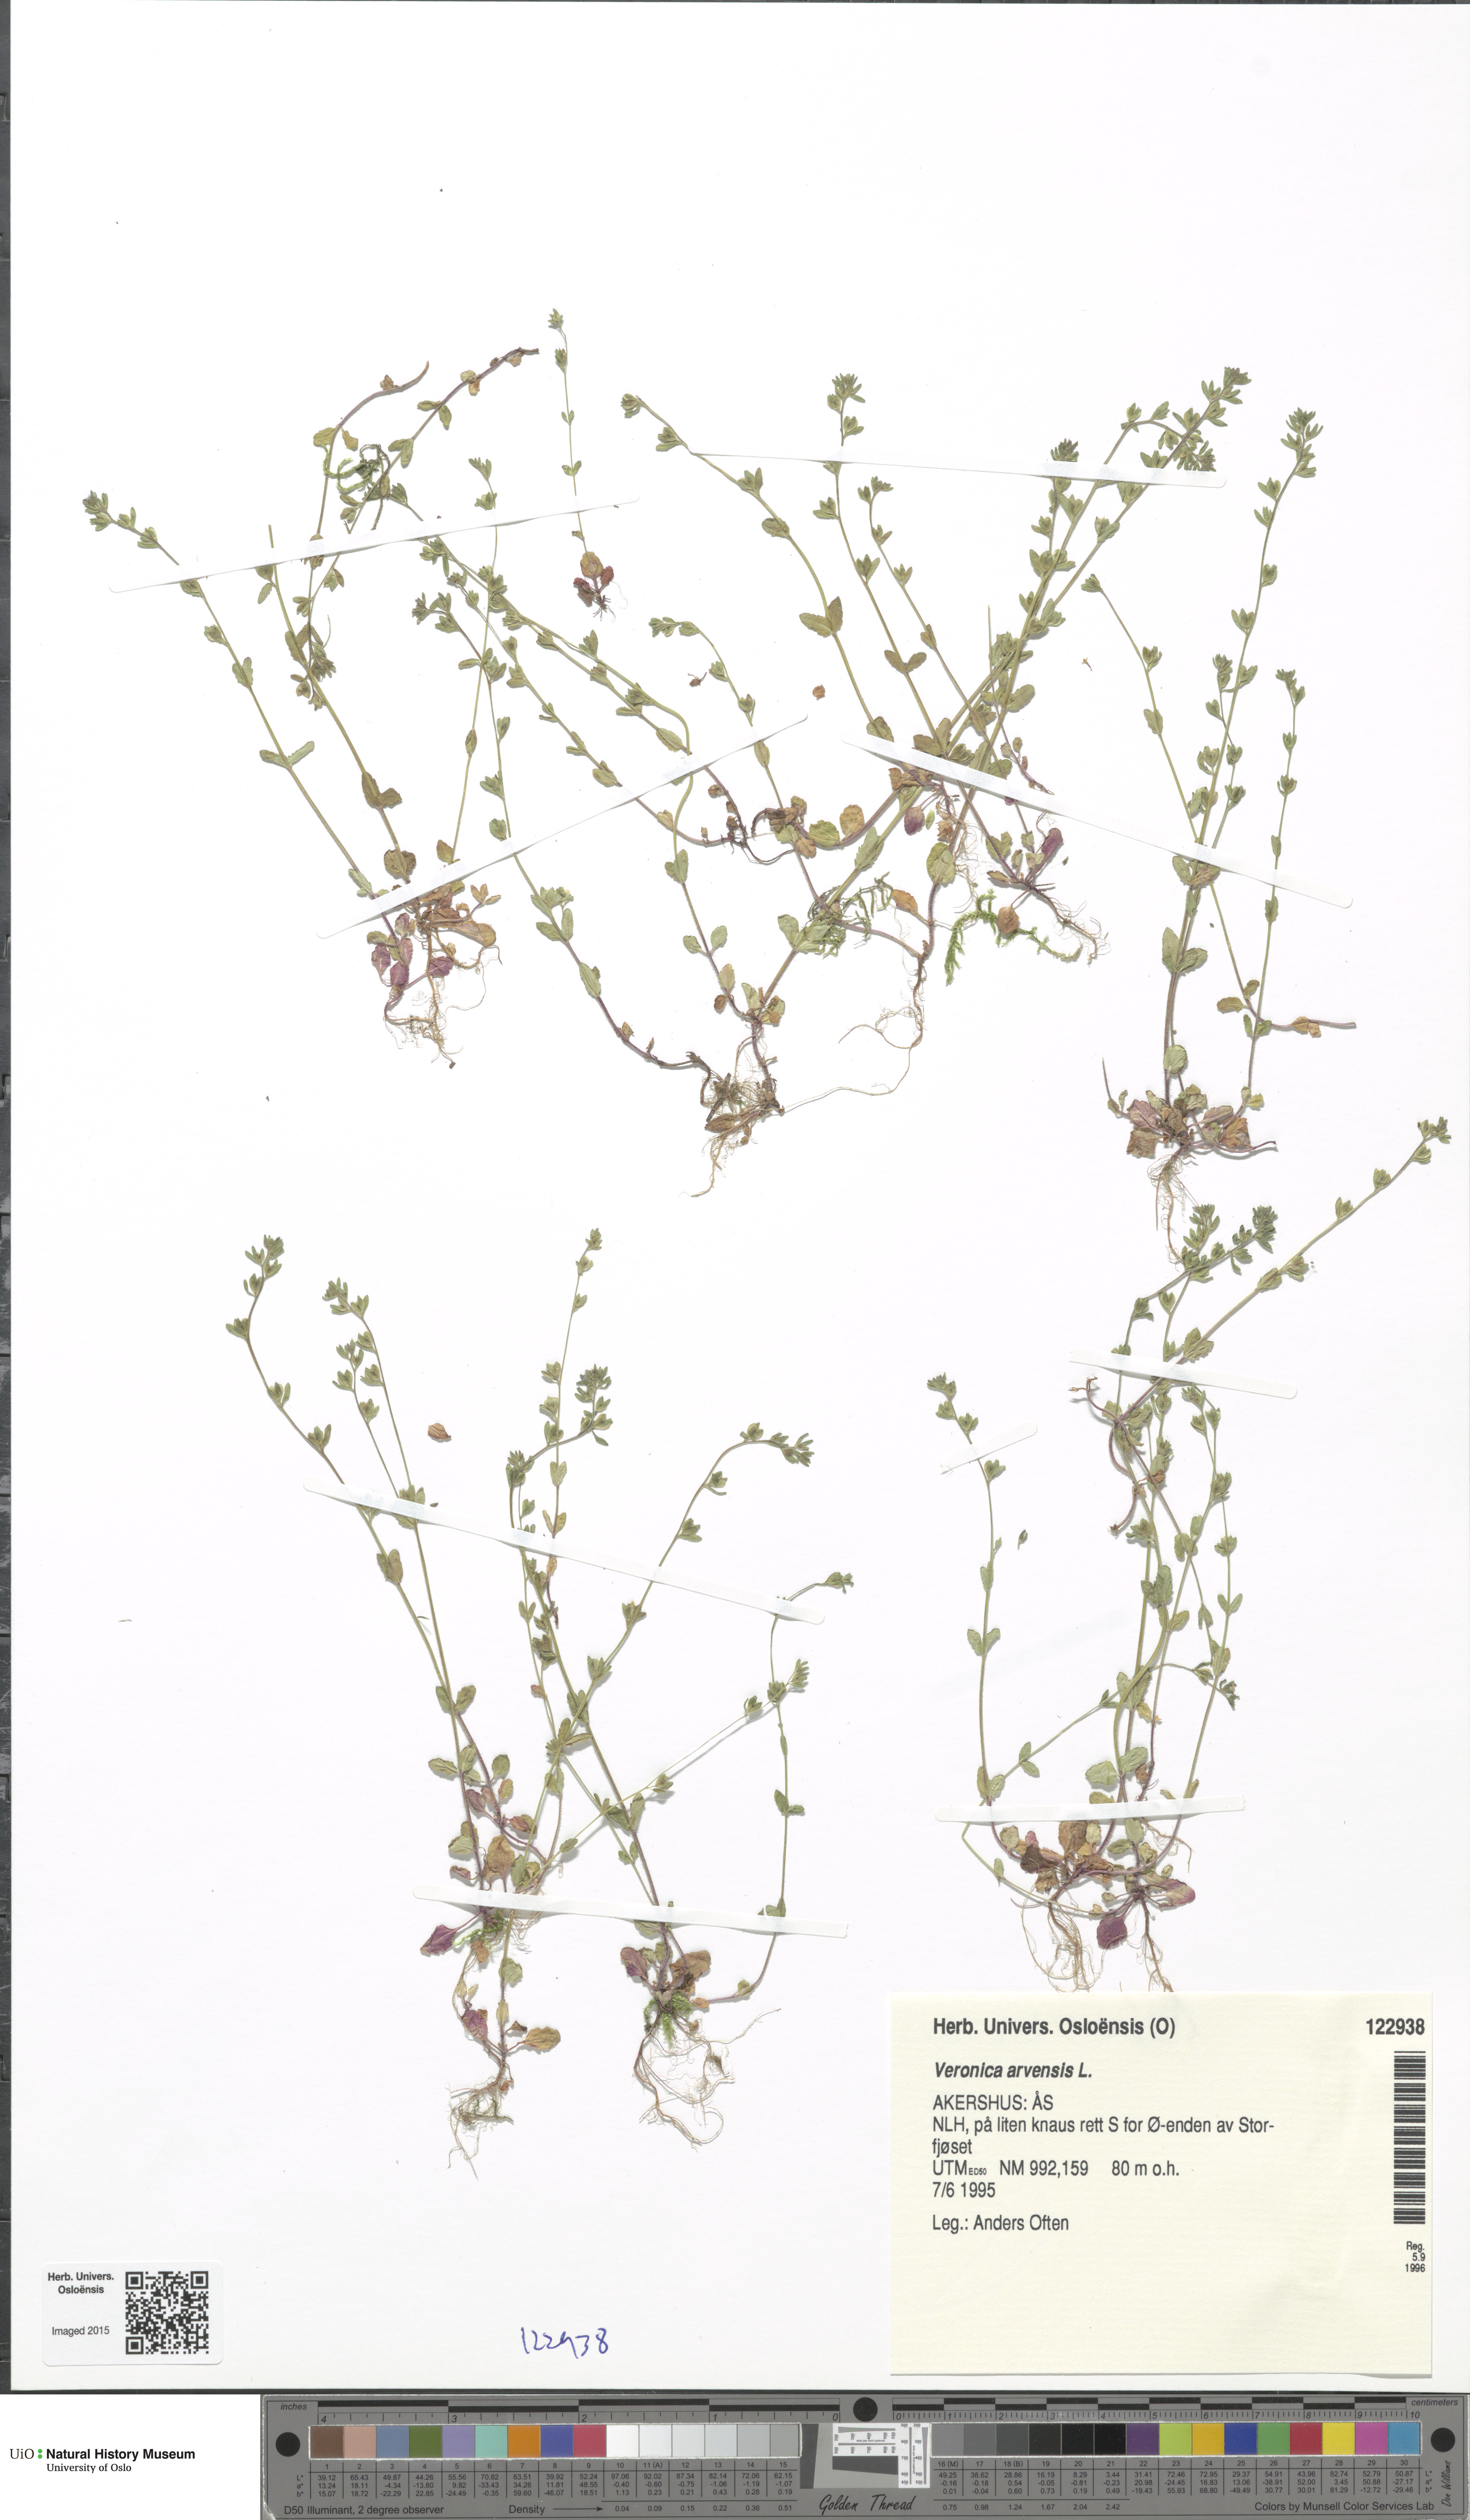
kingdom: Plantae
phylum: Tracheophyta
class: Magnoliopsida
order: Lamiales
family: Plantaginaceae
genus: Veronica
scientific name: Veronica arvensis
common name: Corn speedwell
